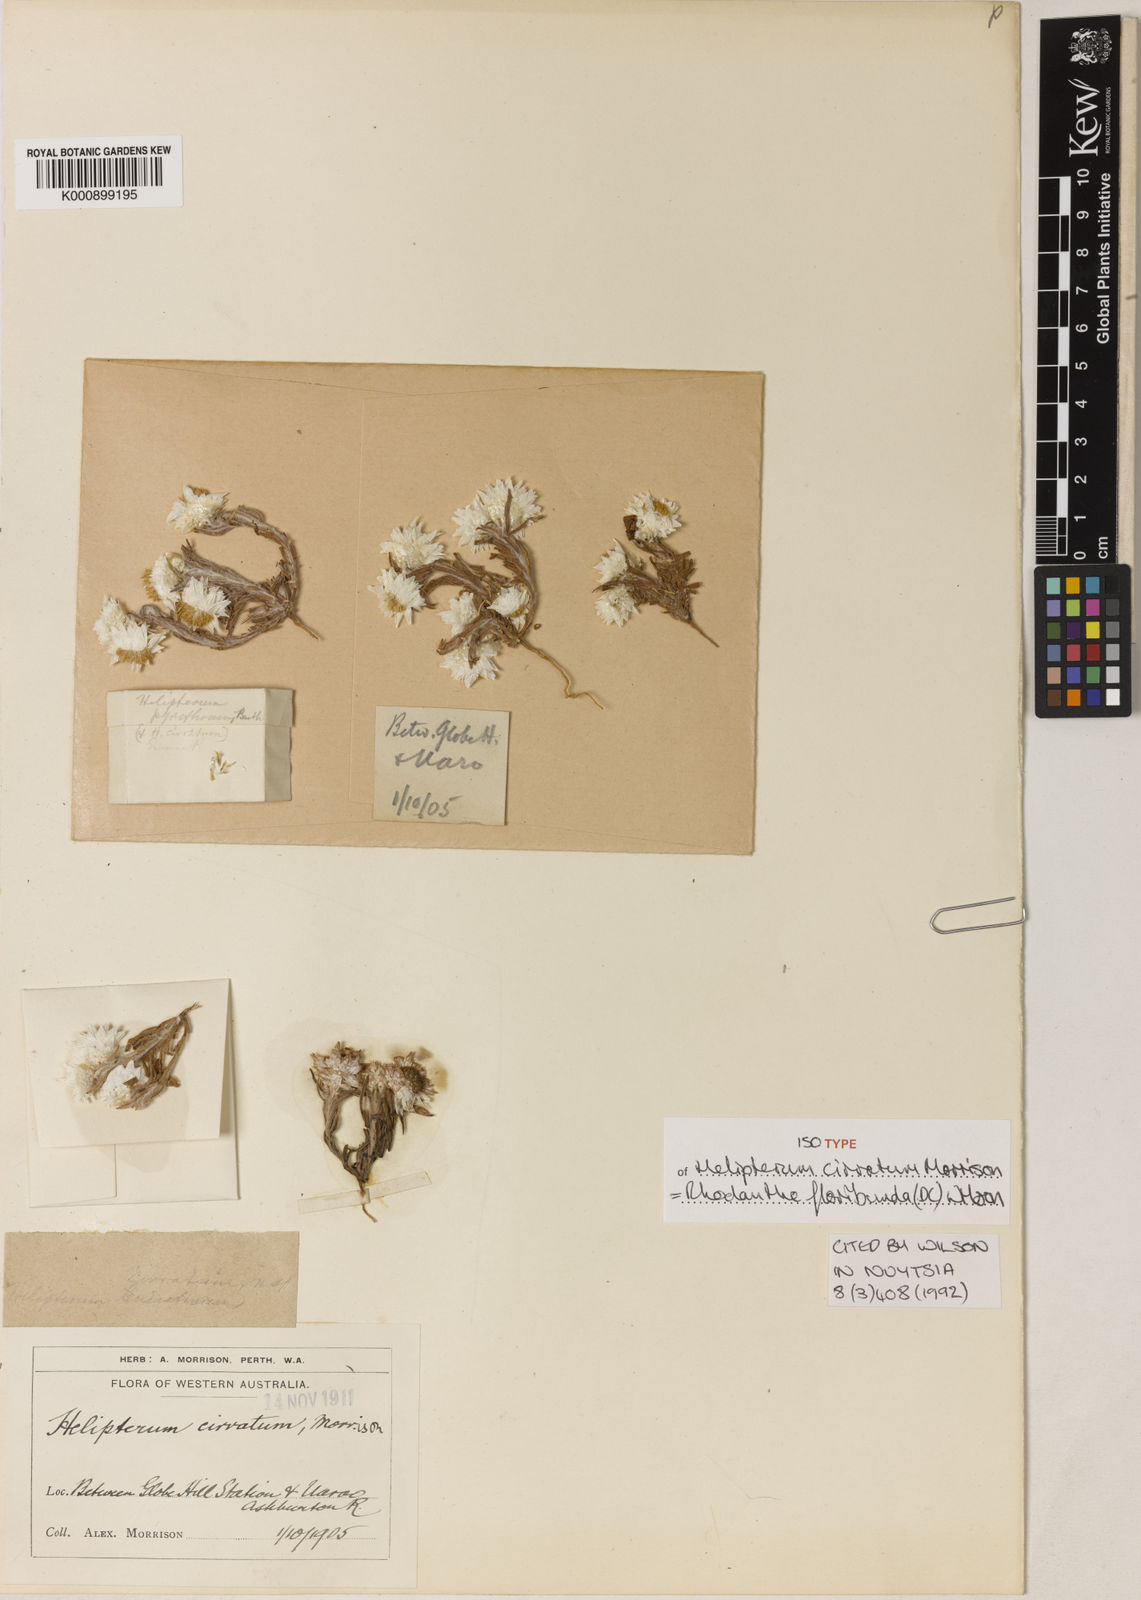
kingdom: Plantae
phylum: Tracheophyta
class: Magnoliopsida
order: Asterales
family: Asteraceae
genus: Rhodanthe
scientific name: Rhodanthe floribunda
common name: Flowery sunray
